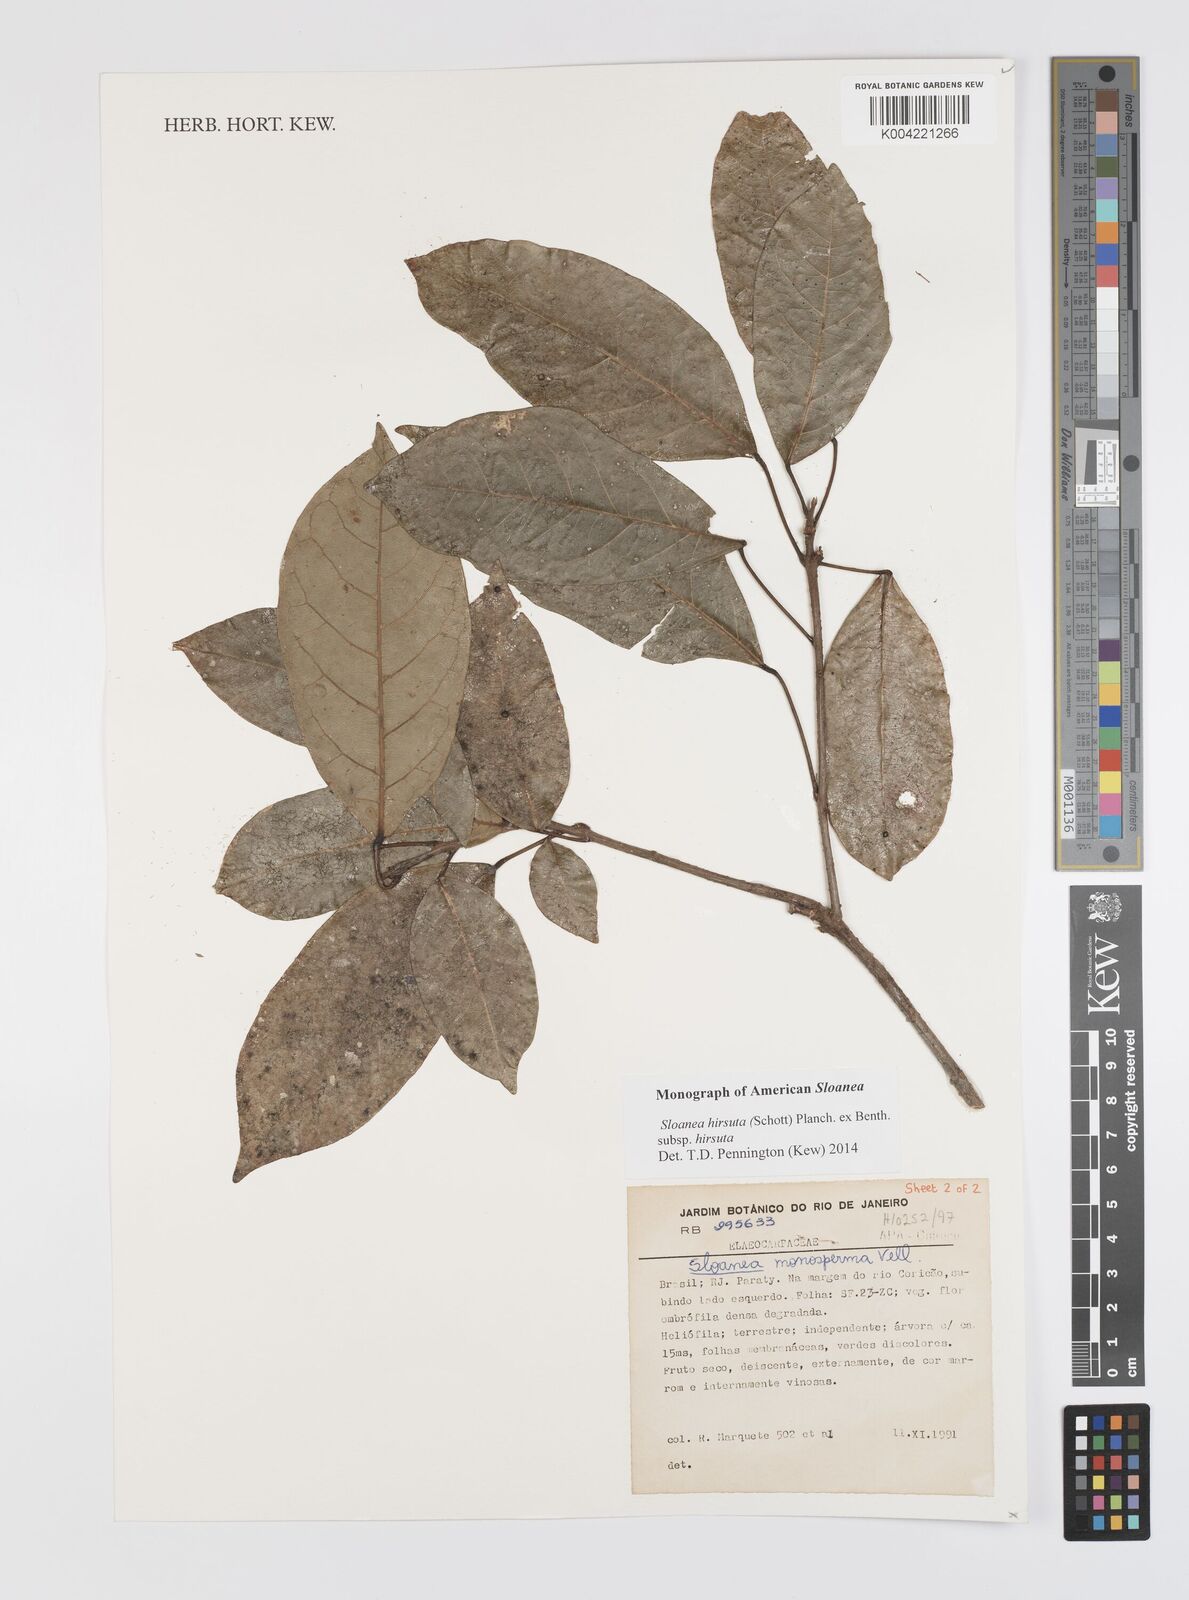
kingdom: Plantae
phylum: Tracheophyta
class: Magnoliopsida
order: Oxalidales
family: Elaeocarpaceae
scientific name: Elaeocarpaceae
